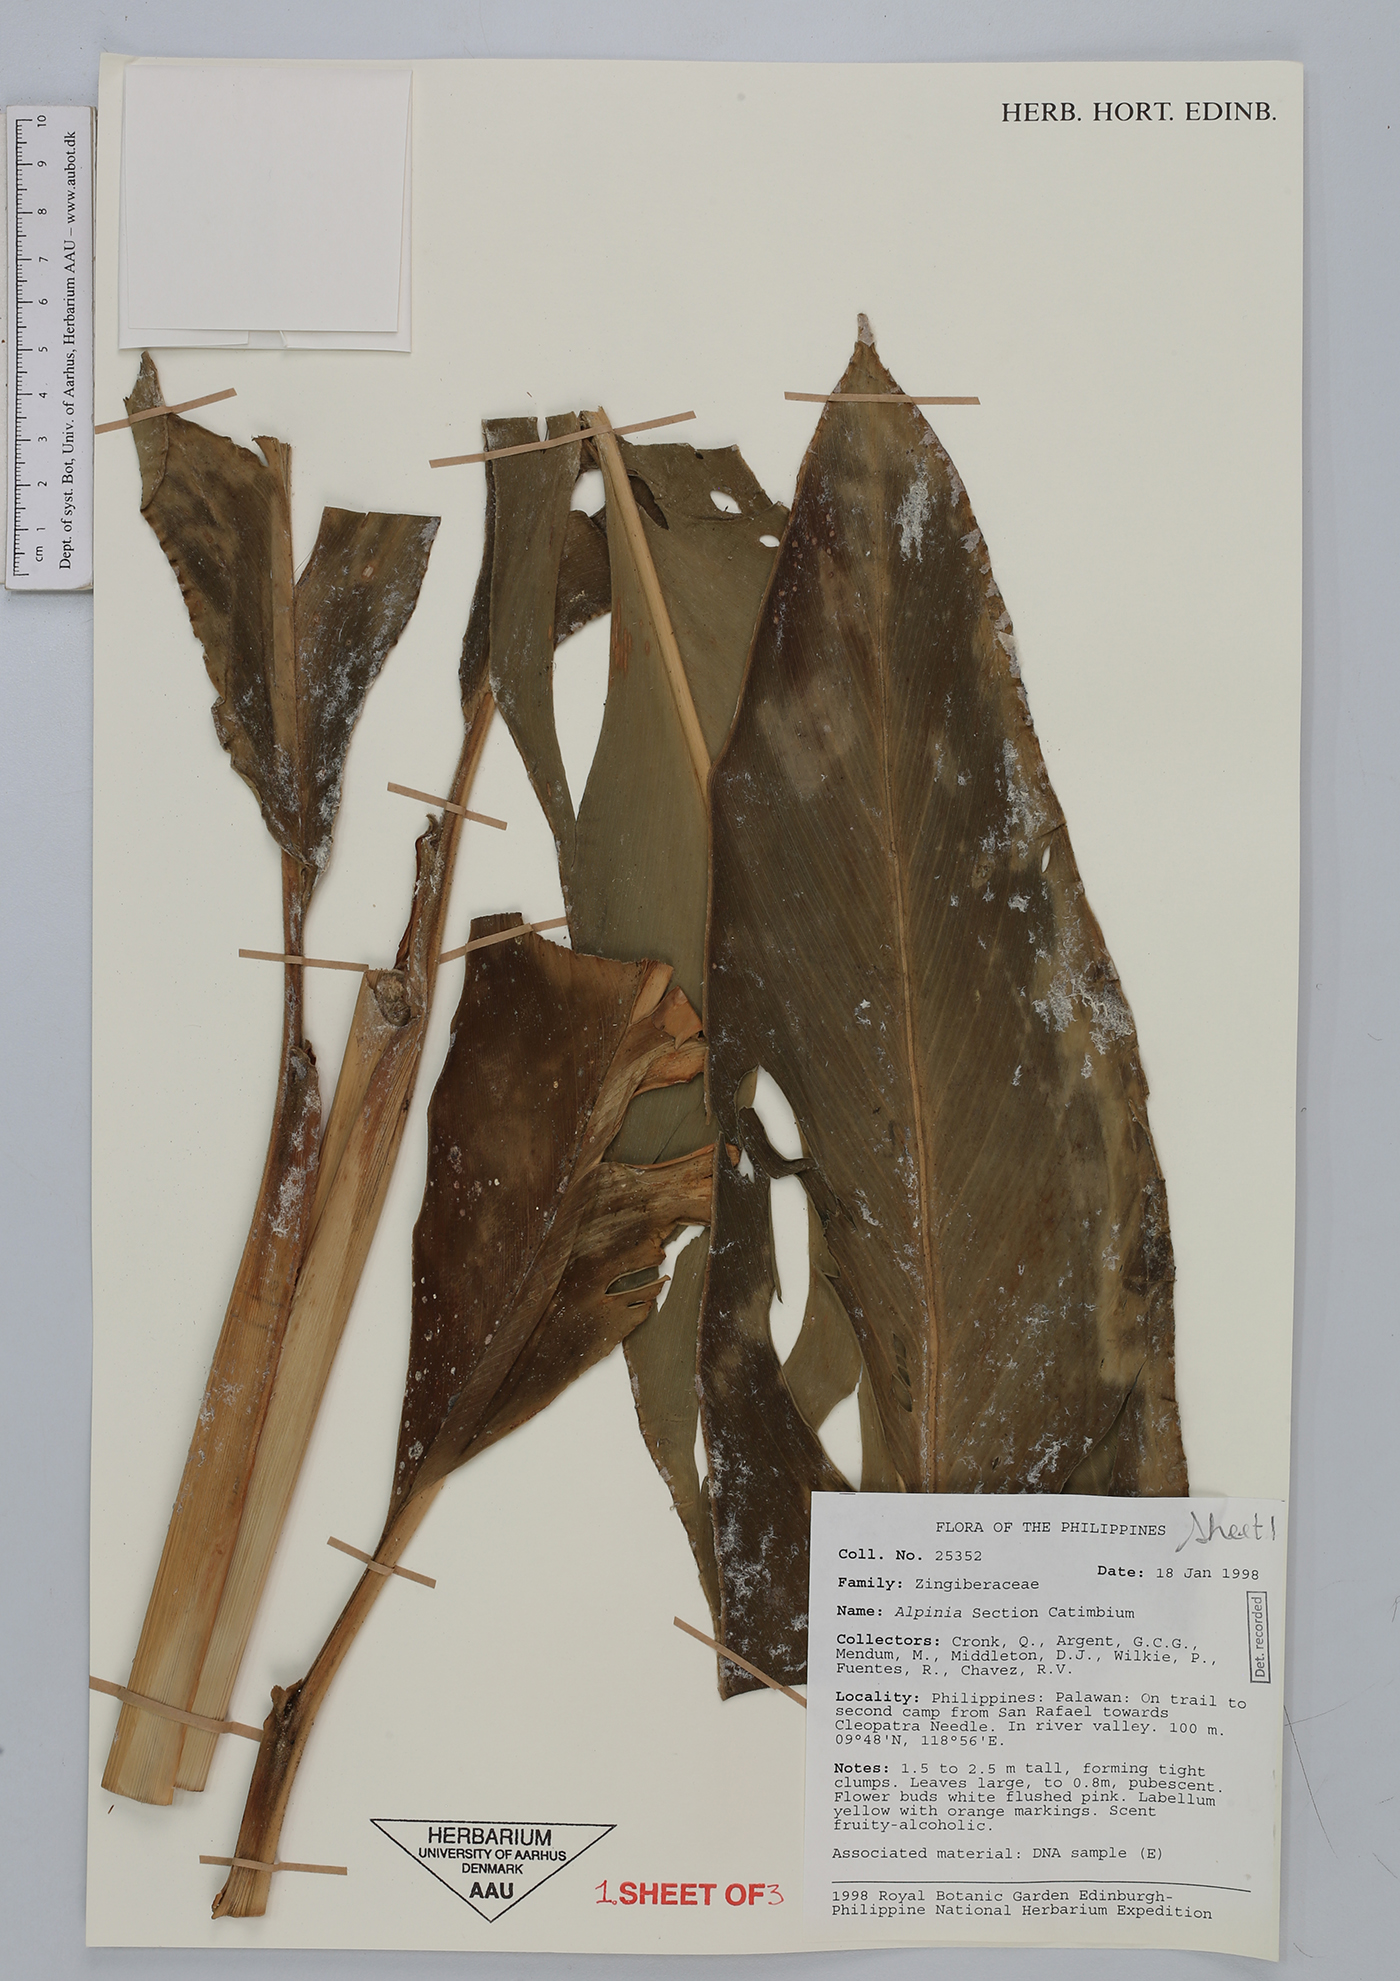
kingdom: Plantae
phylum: Tracheophyta
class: Liliopsida
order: Zingiberales
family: Zingiberaceae
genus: Alpinia
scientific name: Alpinia
